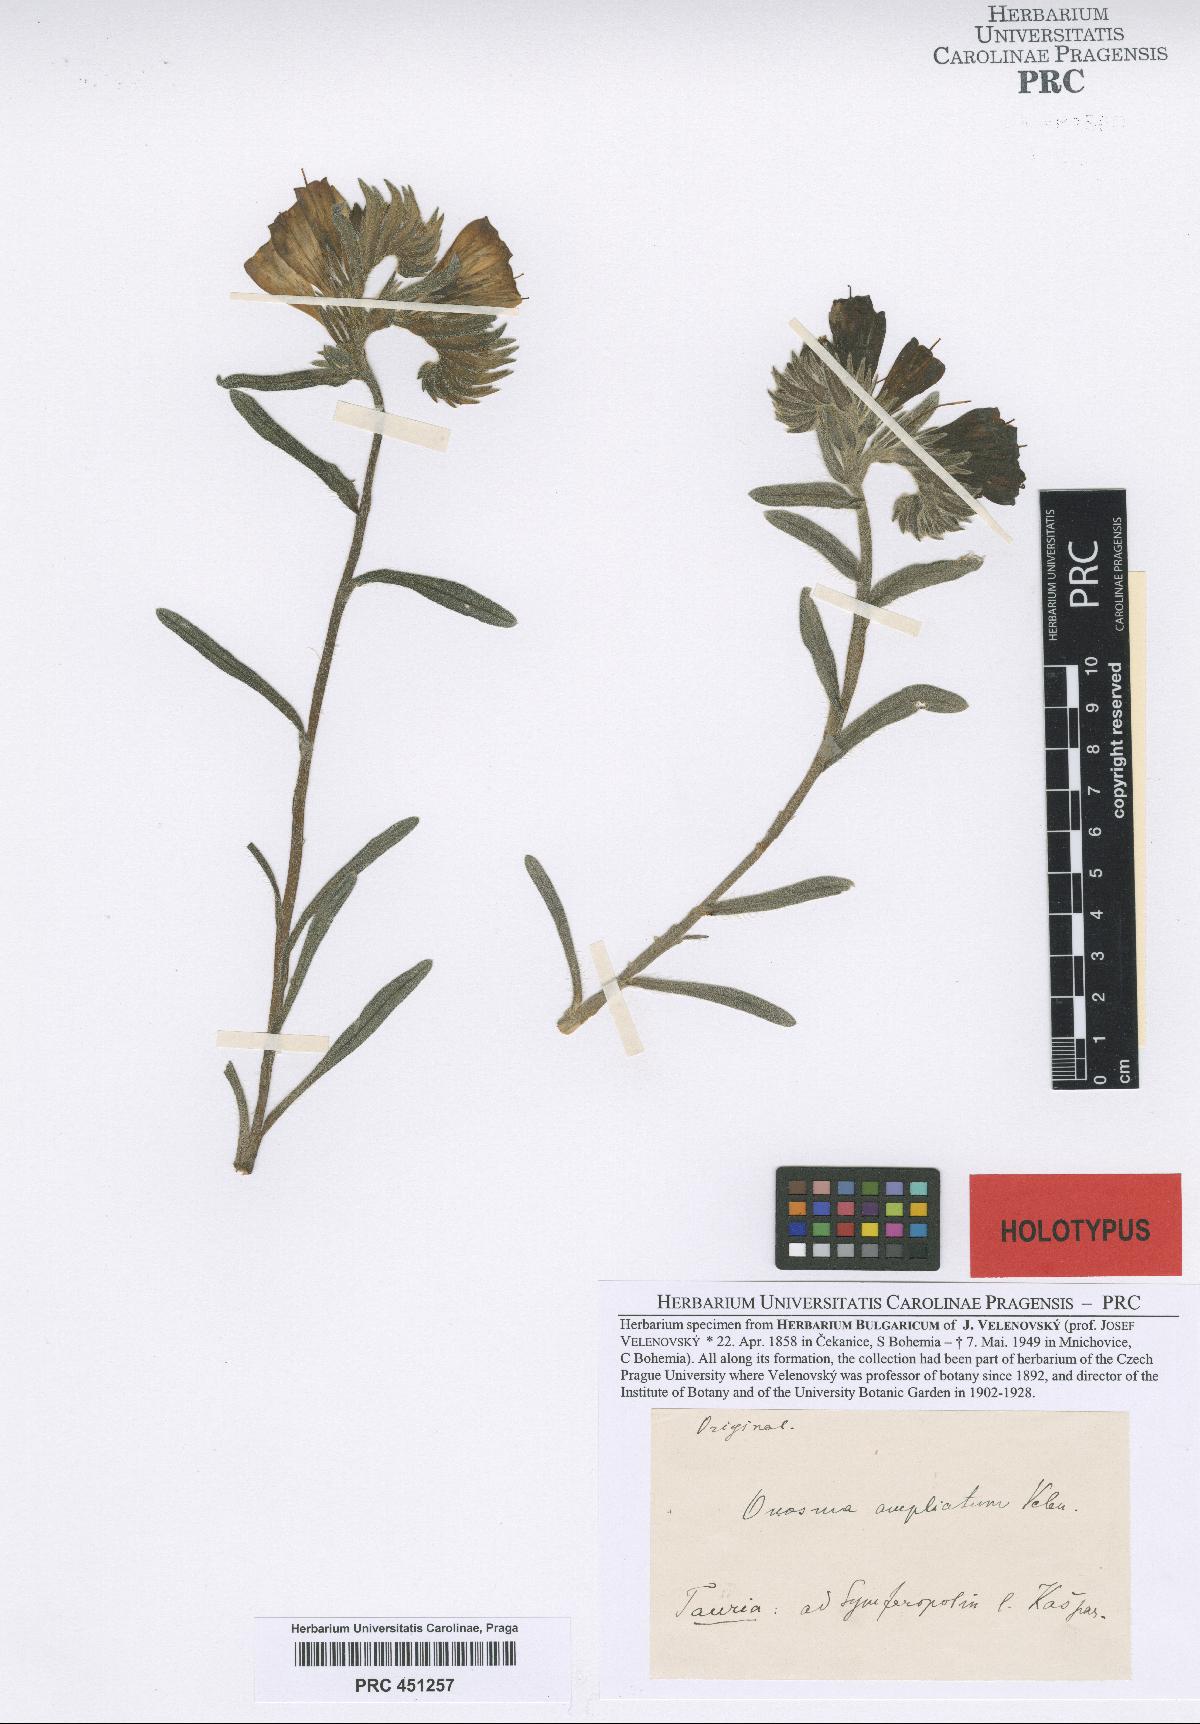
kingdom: Plantae
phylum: Tracheophyta
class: Magnoliopsida
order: Boraginales
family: Boraginaceae
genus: Onosma
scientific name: Onosma visianii
